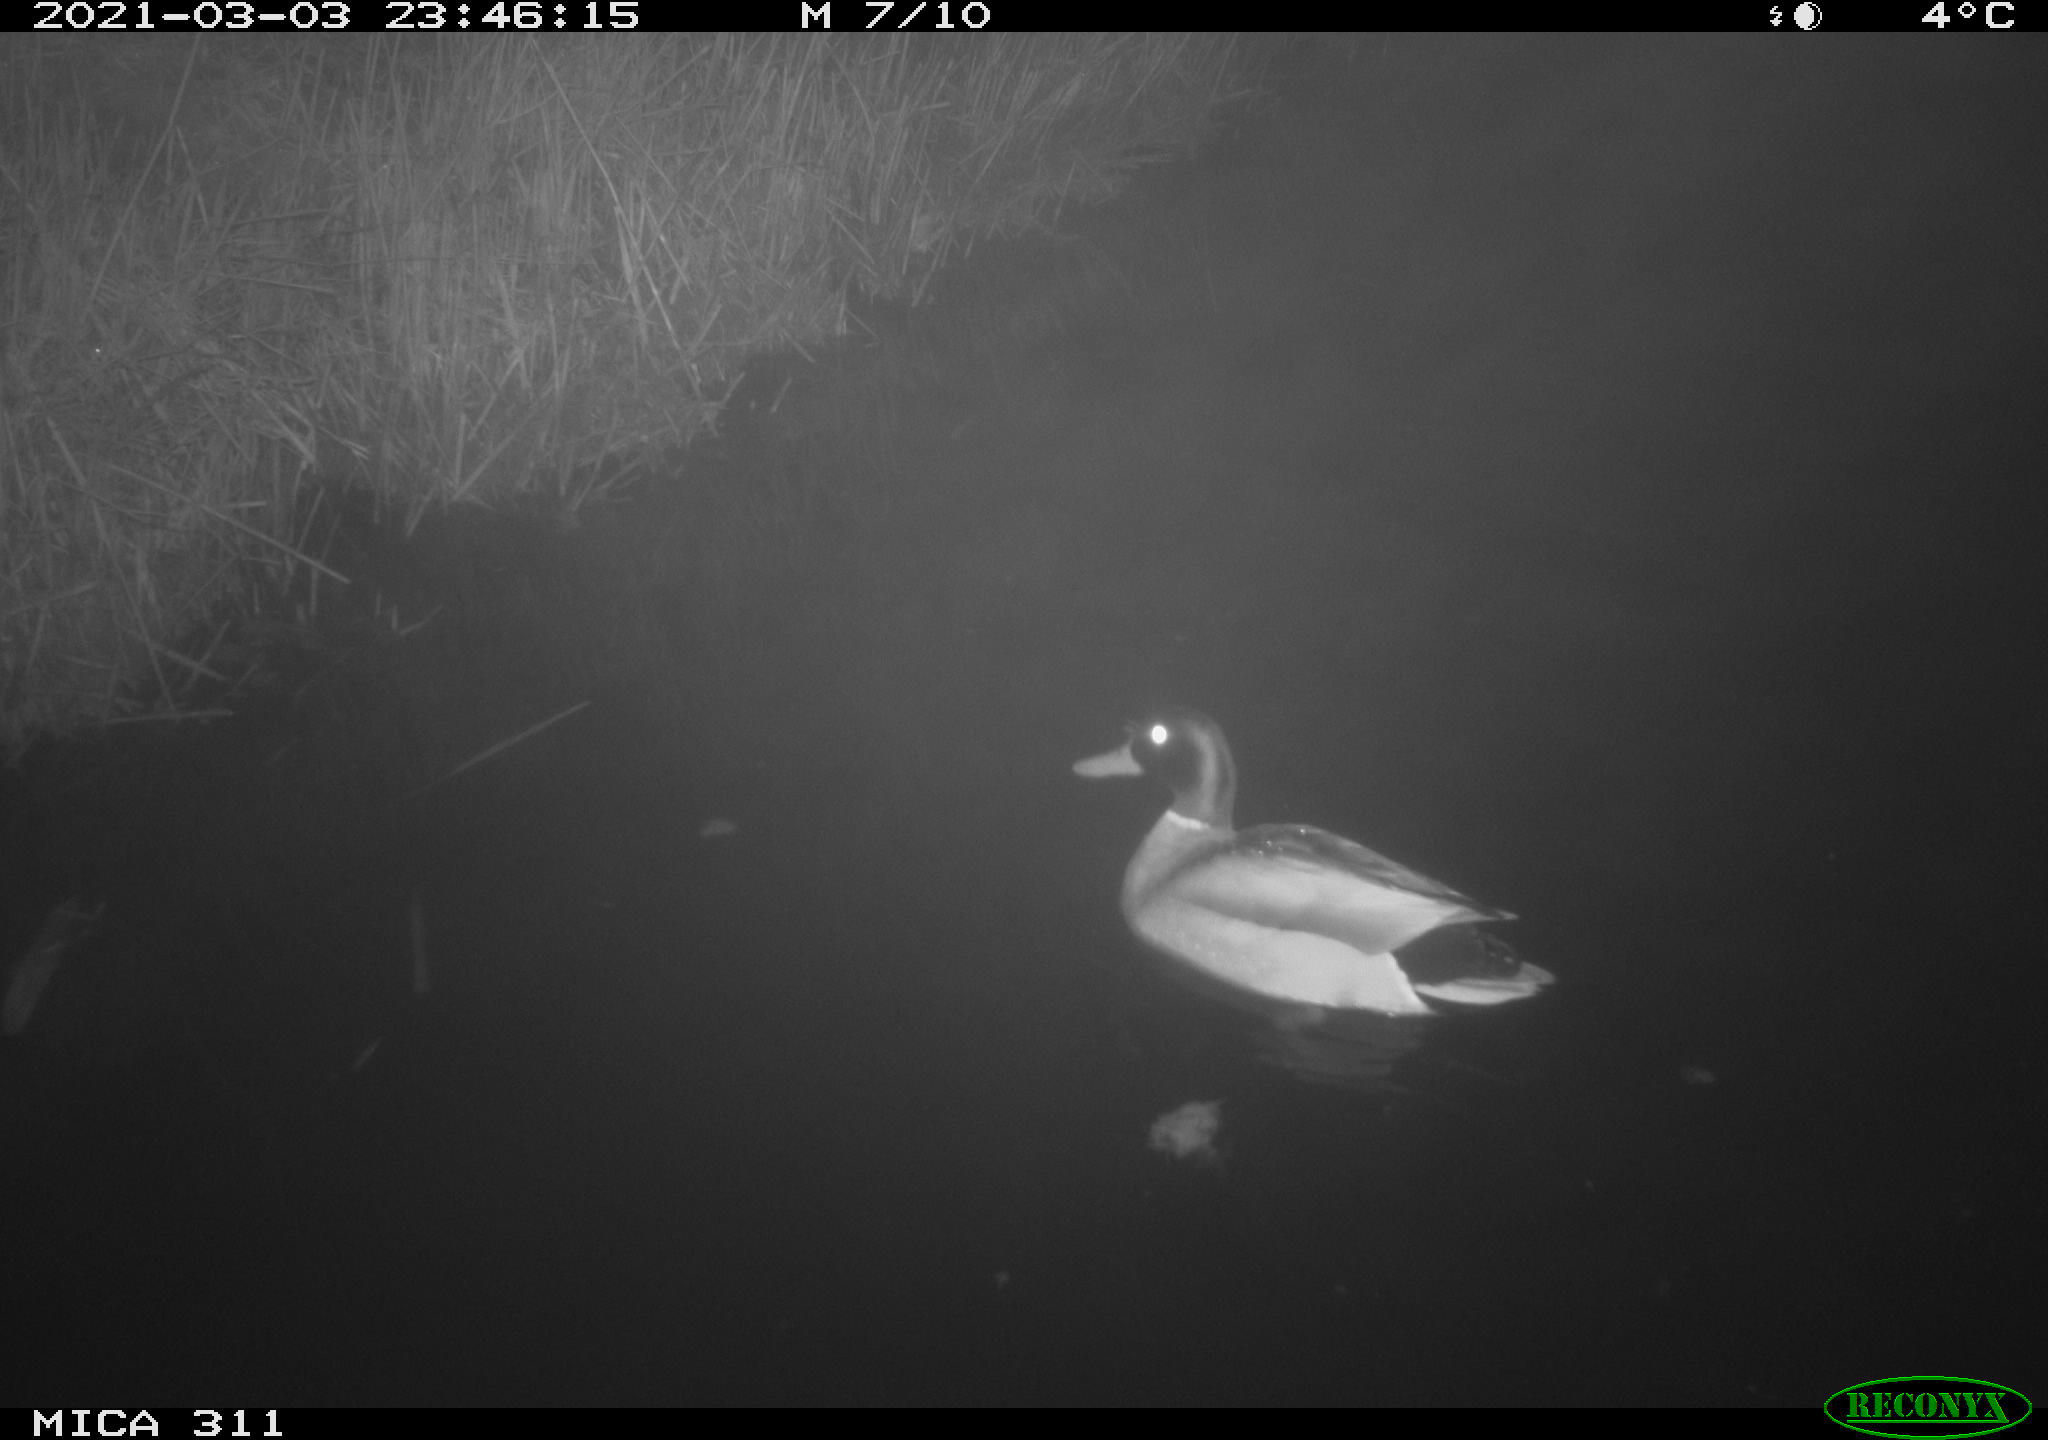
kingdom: Animalia
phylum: Chordata
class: Aves
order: Anseriformes
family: Anatidae
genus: Anas
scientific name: Anas
